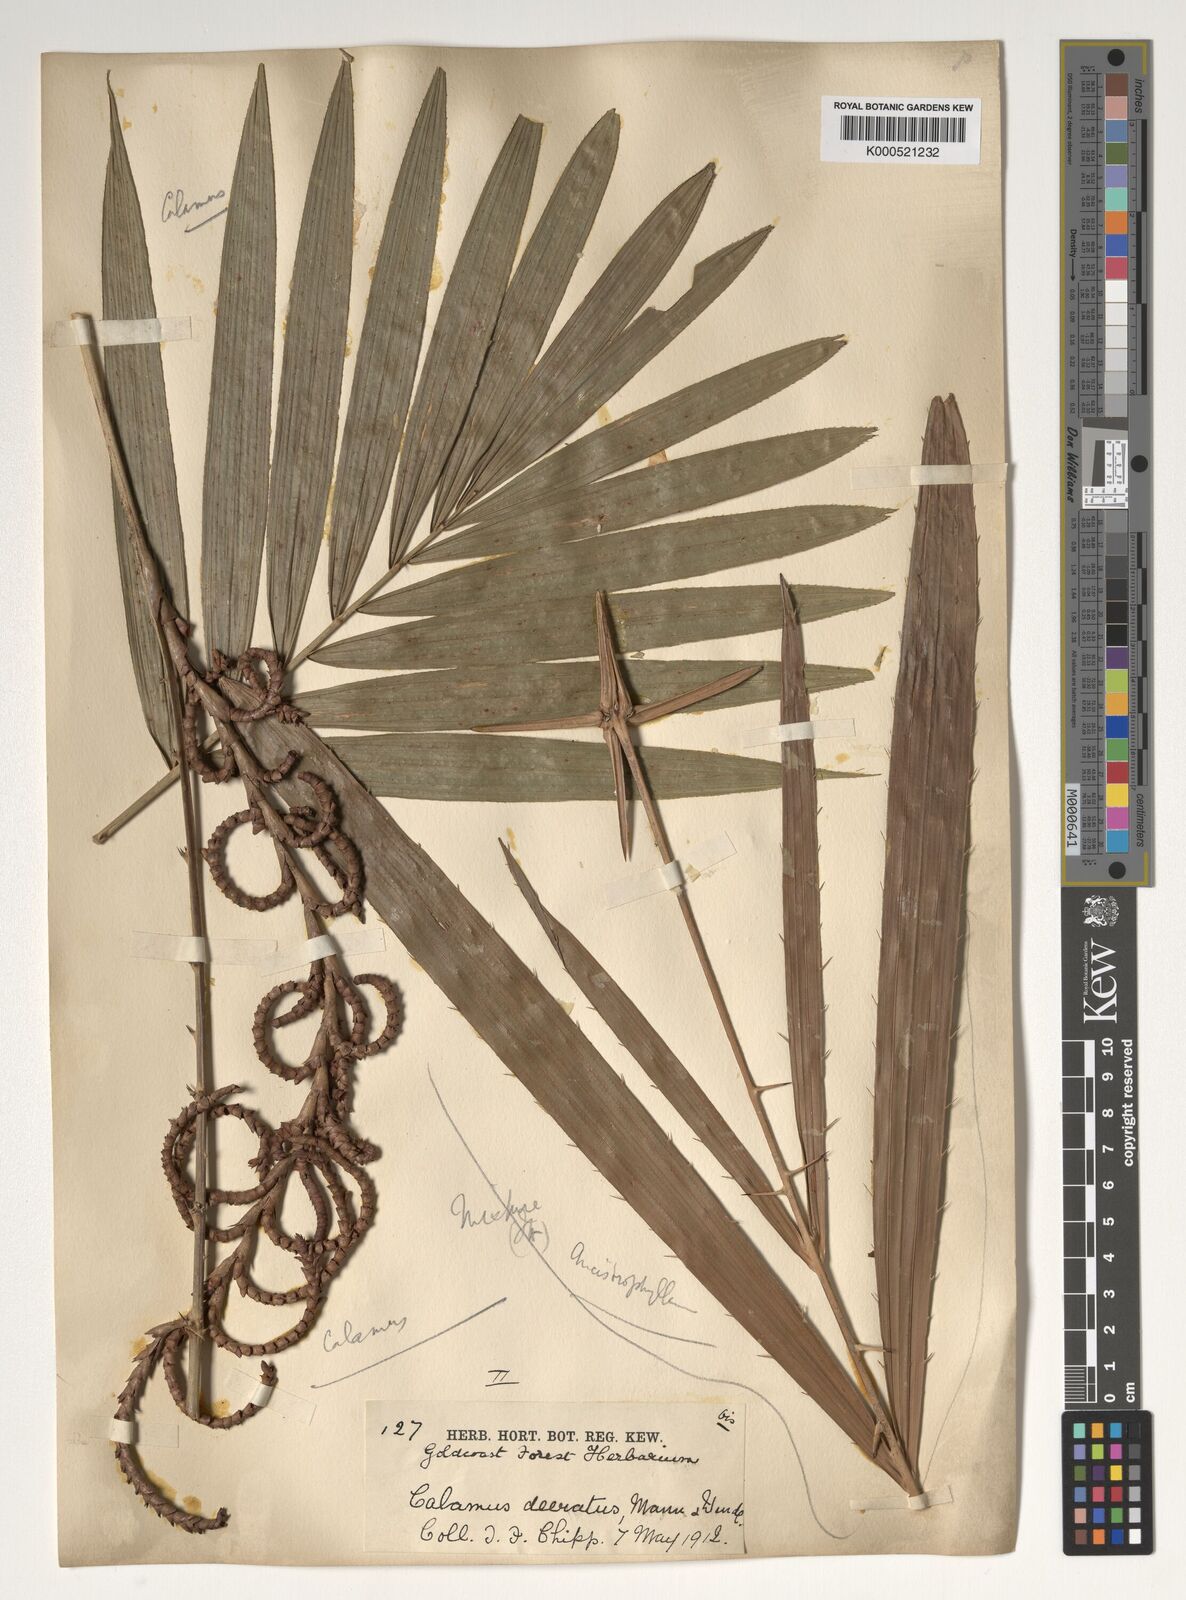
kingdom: Plantae
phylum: Tracheophyta
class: Liliopsida
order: Arecales
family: Arecaceae
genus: Calamus
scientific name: Calamus deerratus
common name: Rattan
